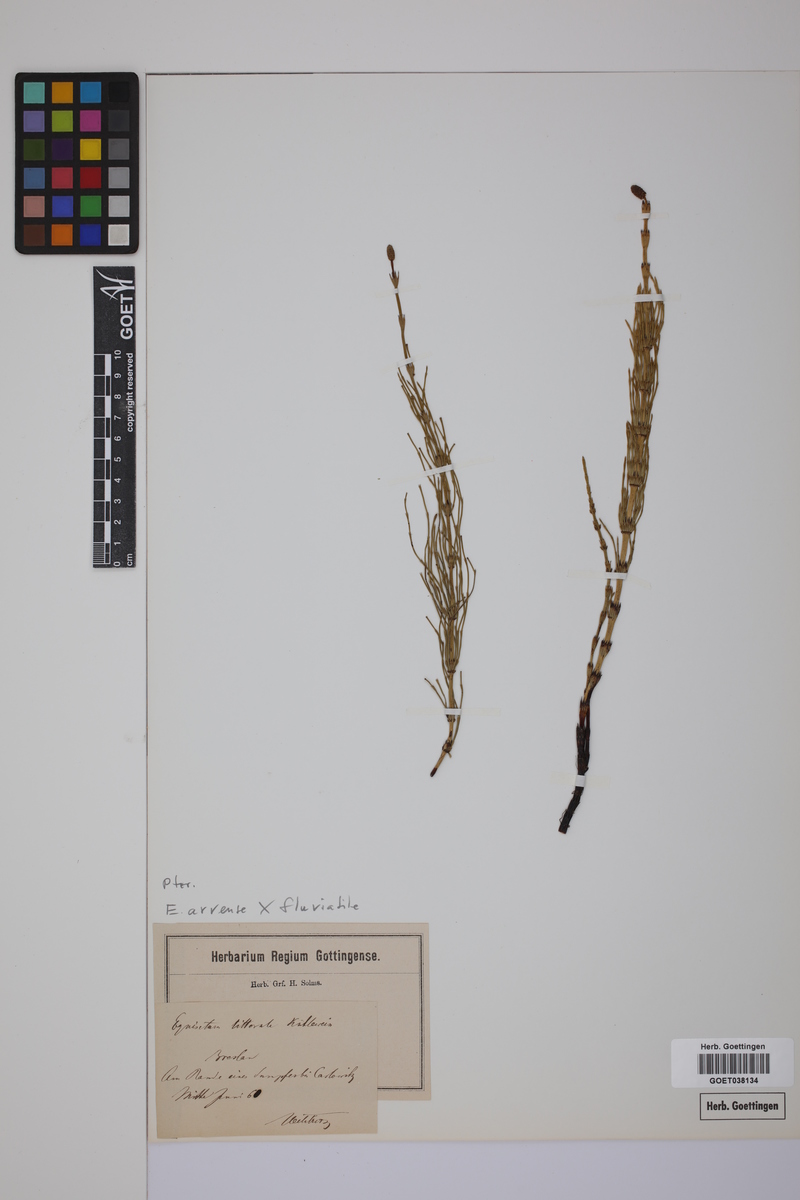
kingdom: Plantae
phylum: Tracheophyta
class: Polypodiopsida
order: Equisetales
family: Equisetaceae
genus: Equisetum
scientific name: Equisetum litorale
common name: Littoral horsetail
